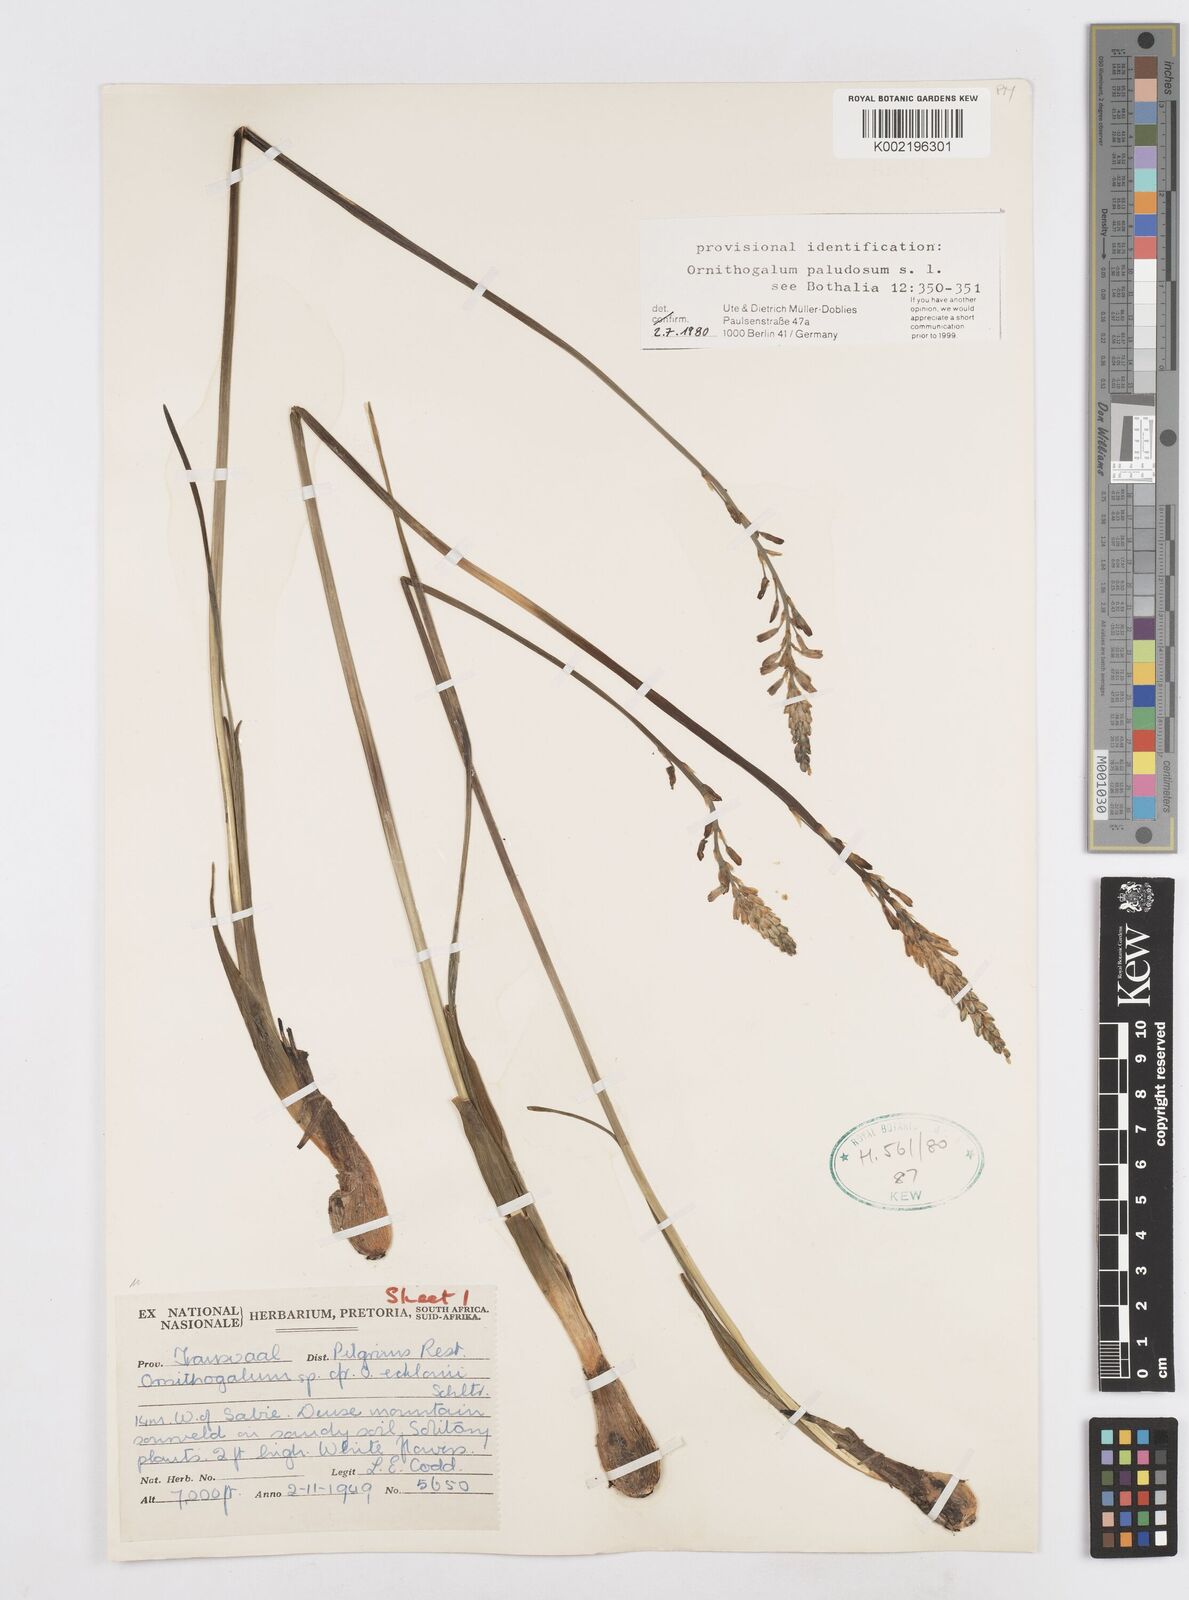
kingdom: Plantae
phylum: Tracheophyta
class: Liliopsida
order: Asparagales
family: Asparagaceae
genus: Ornithogalum
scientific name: Ornithogalum paludosum
